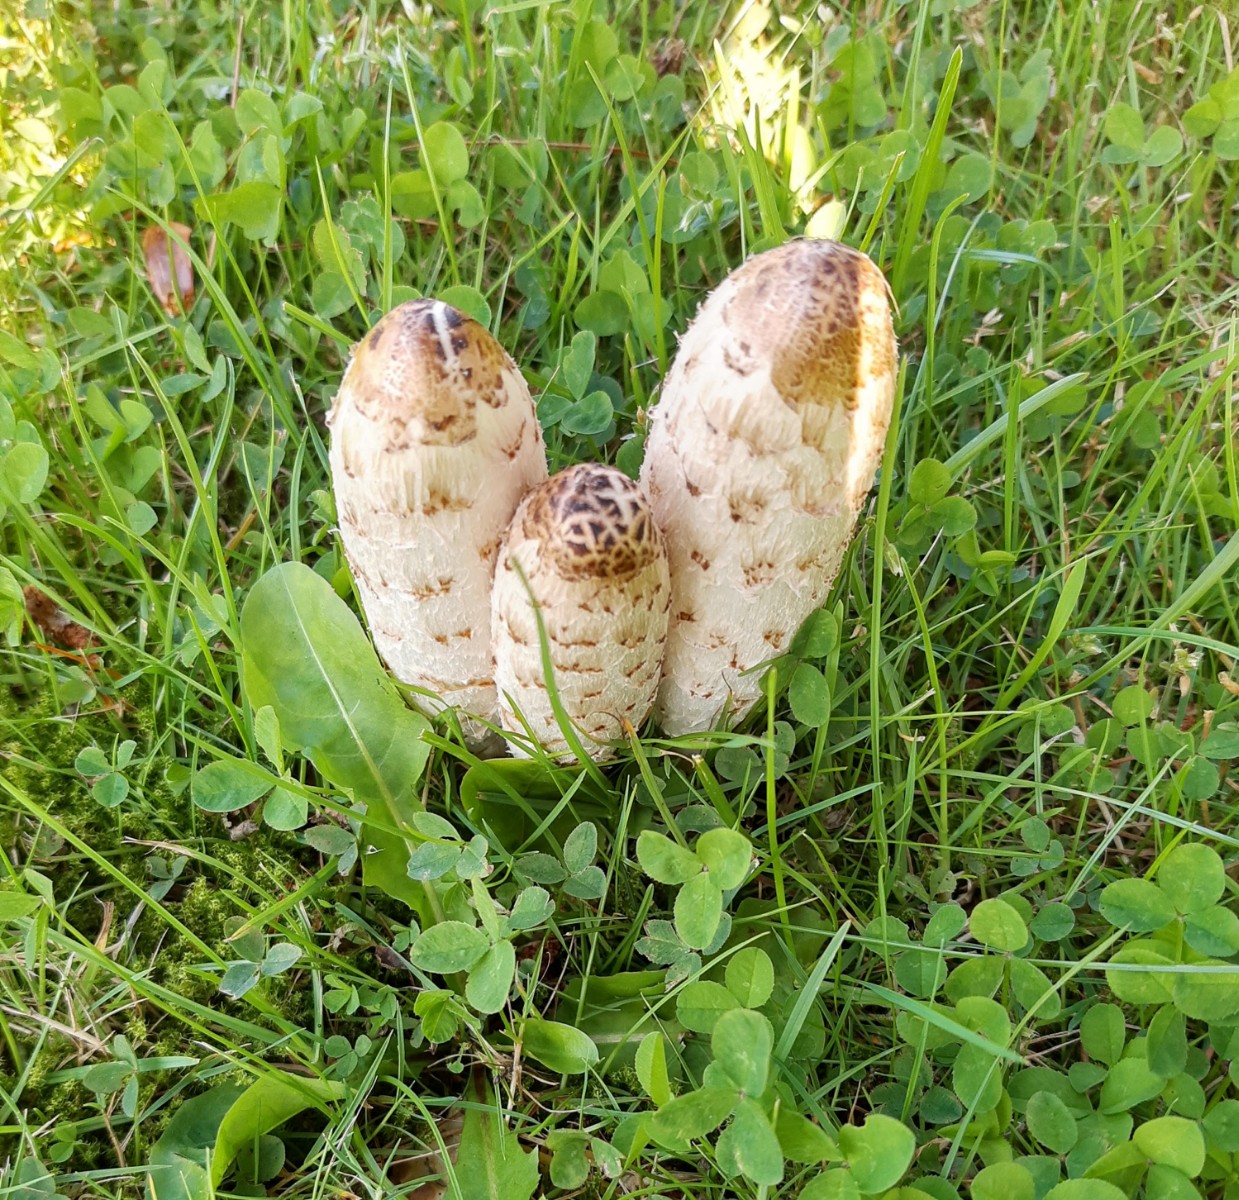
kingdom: Fungi
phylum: Basidiomycota
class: Agaricomycetes
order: Agaricales
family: Agaricaceae
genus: Coprinus
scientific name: Coprinus comatus
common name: stor parykhat
